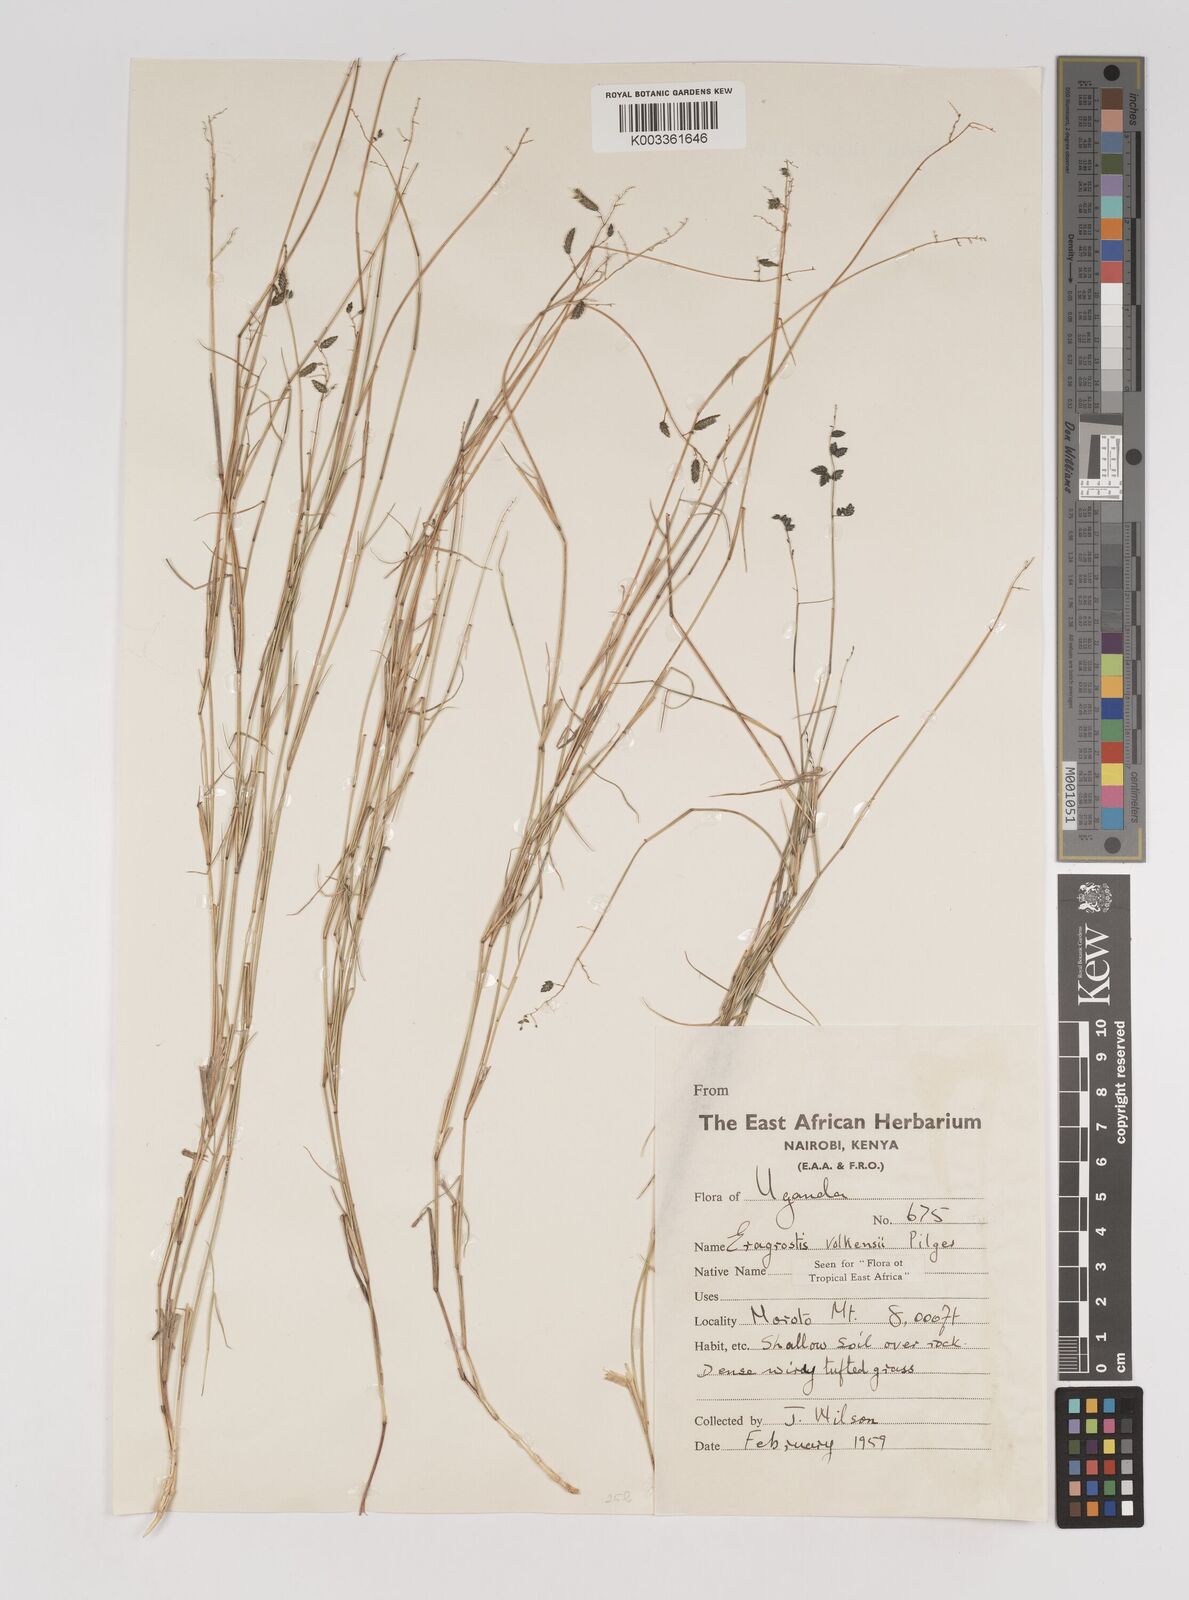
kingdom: Plantae
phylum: Tracheophyta
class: Liliopsida
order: Poales
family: Poaceae
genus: Eragrostis
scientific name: Eragrostis volkensii
